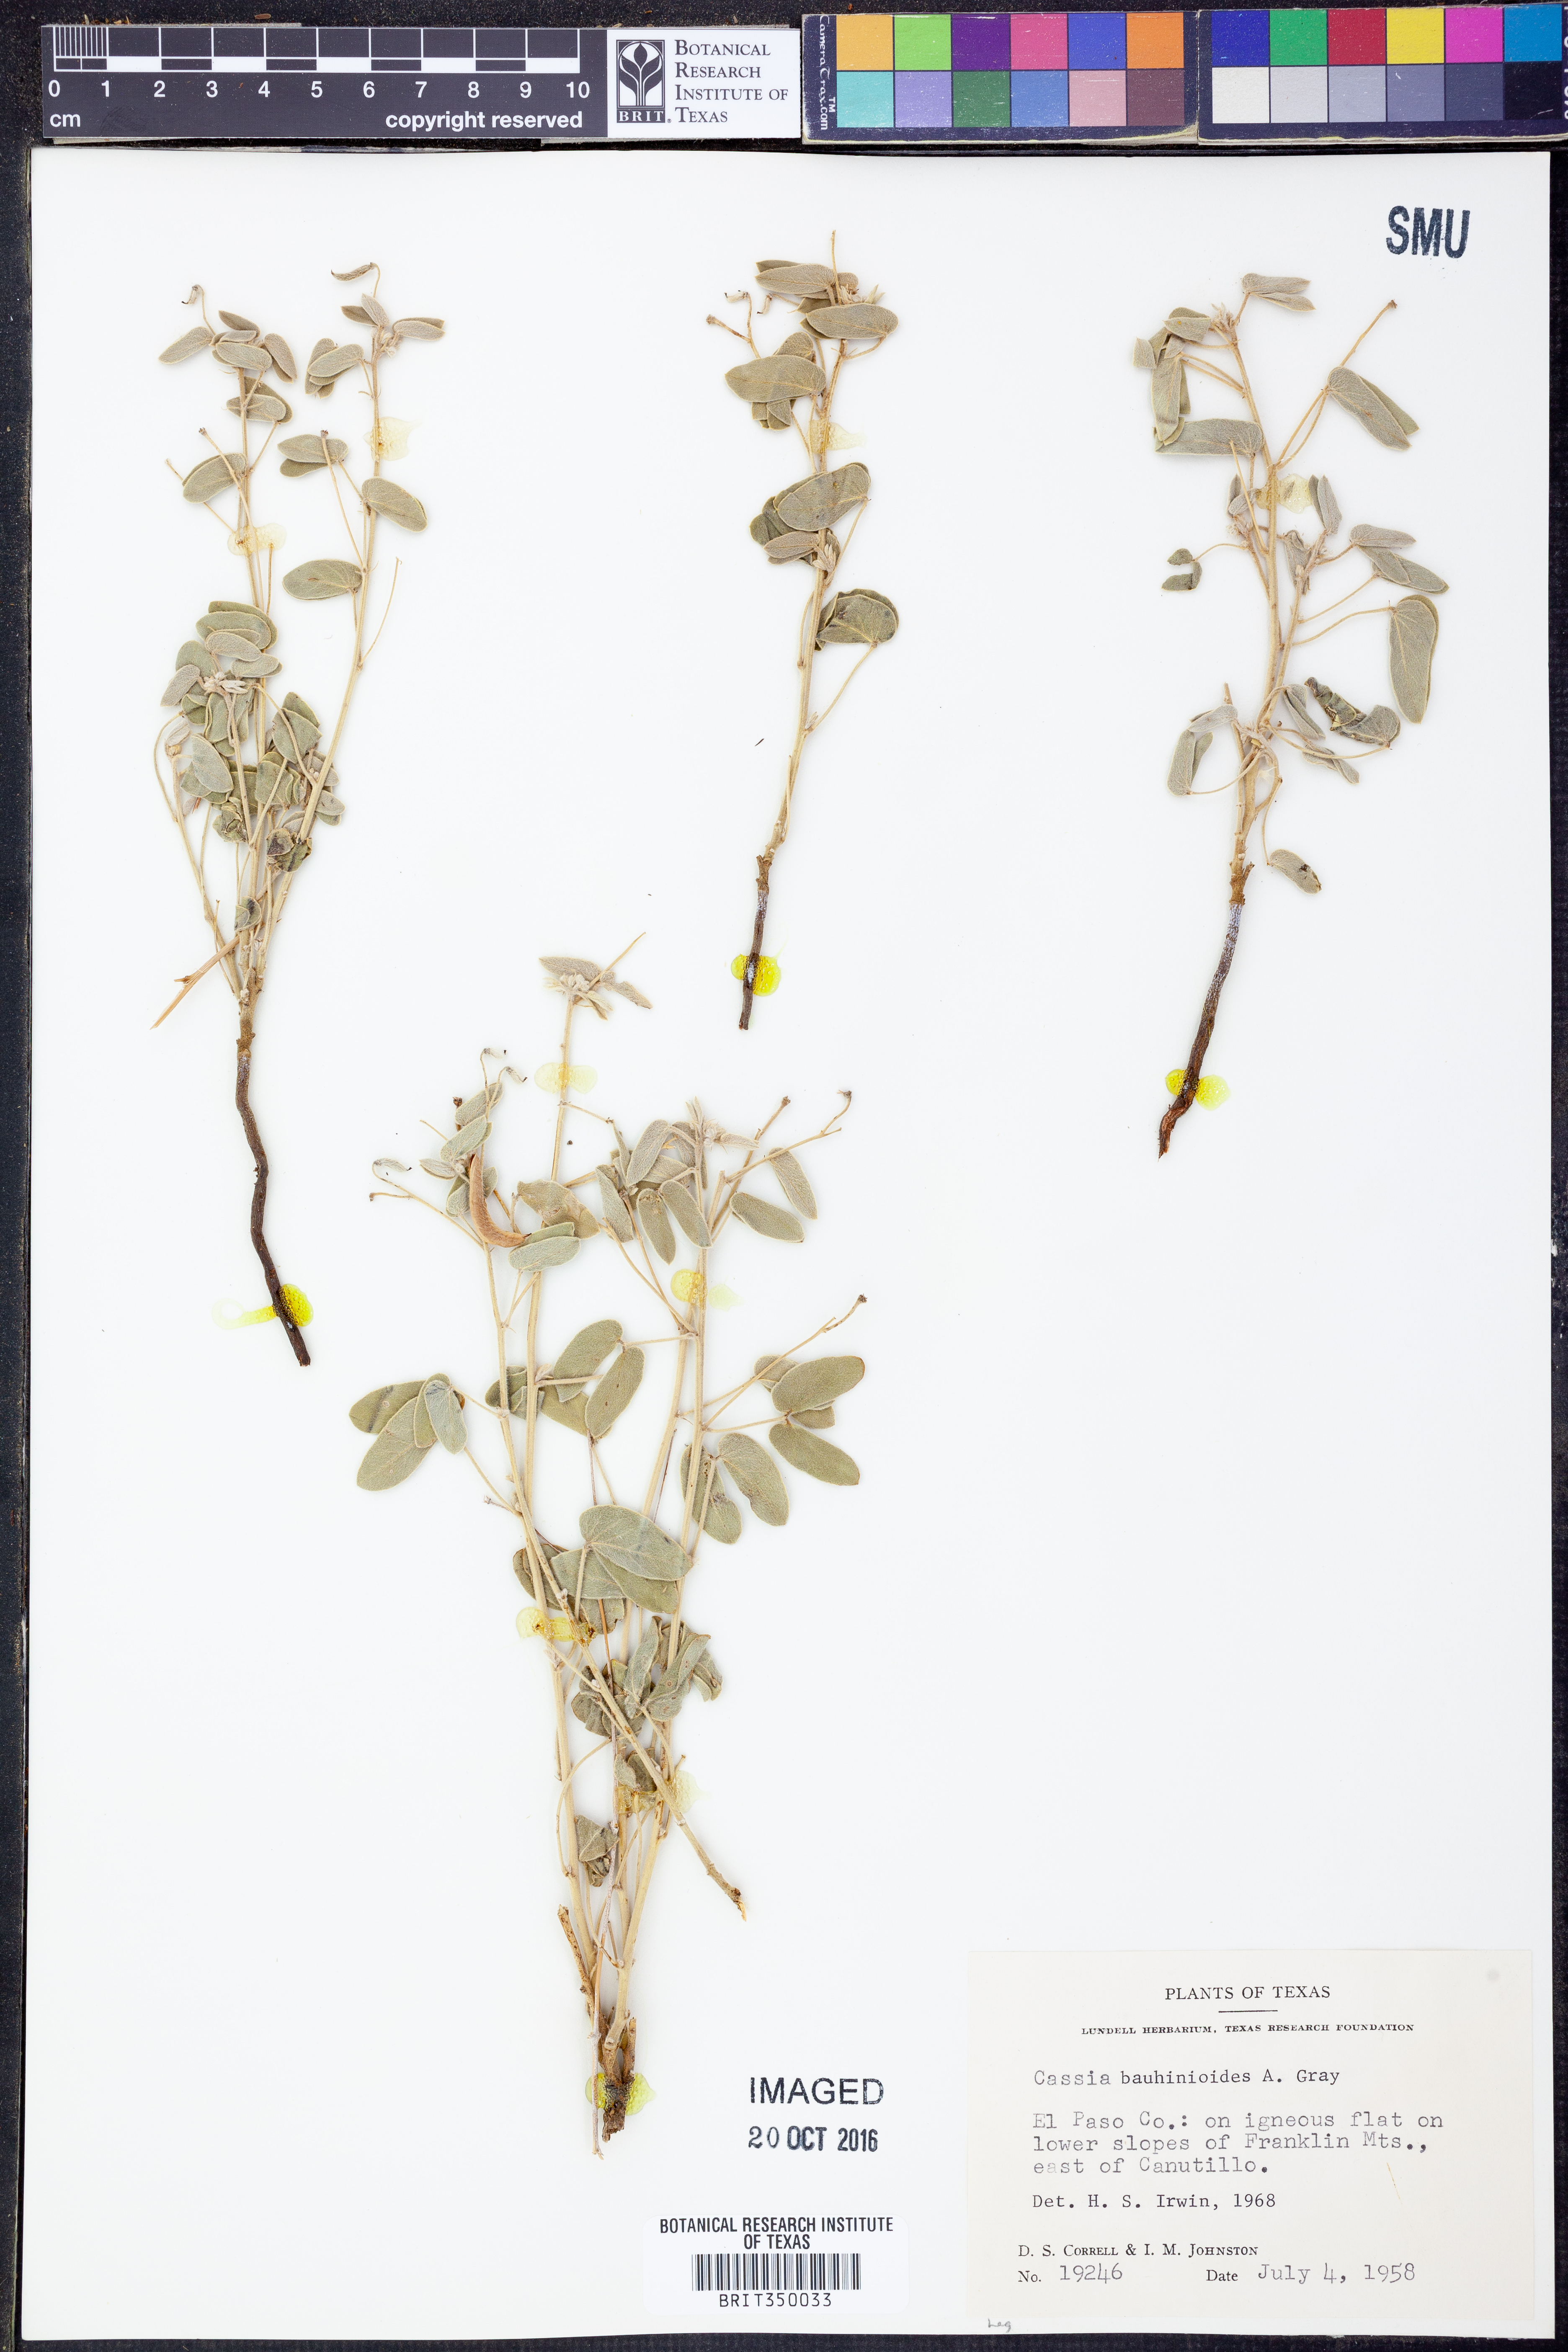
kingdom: Plantae
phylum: Tracheophyta
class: Magnoliopsida
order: Fabales
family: Fabaceae
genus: Senna
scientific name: Senna bauhinioides
